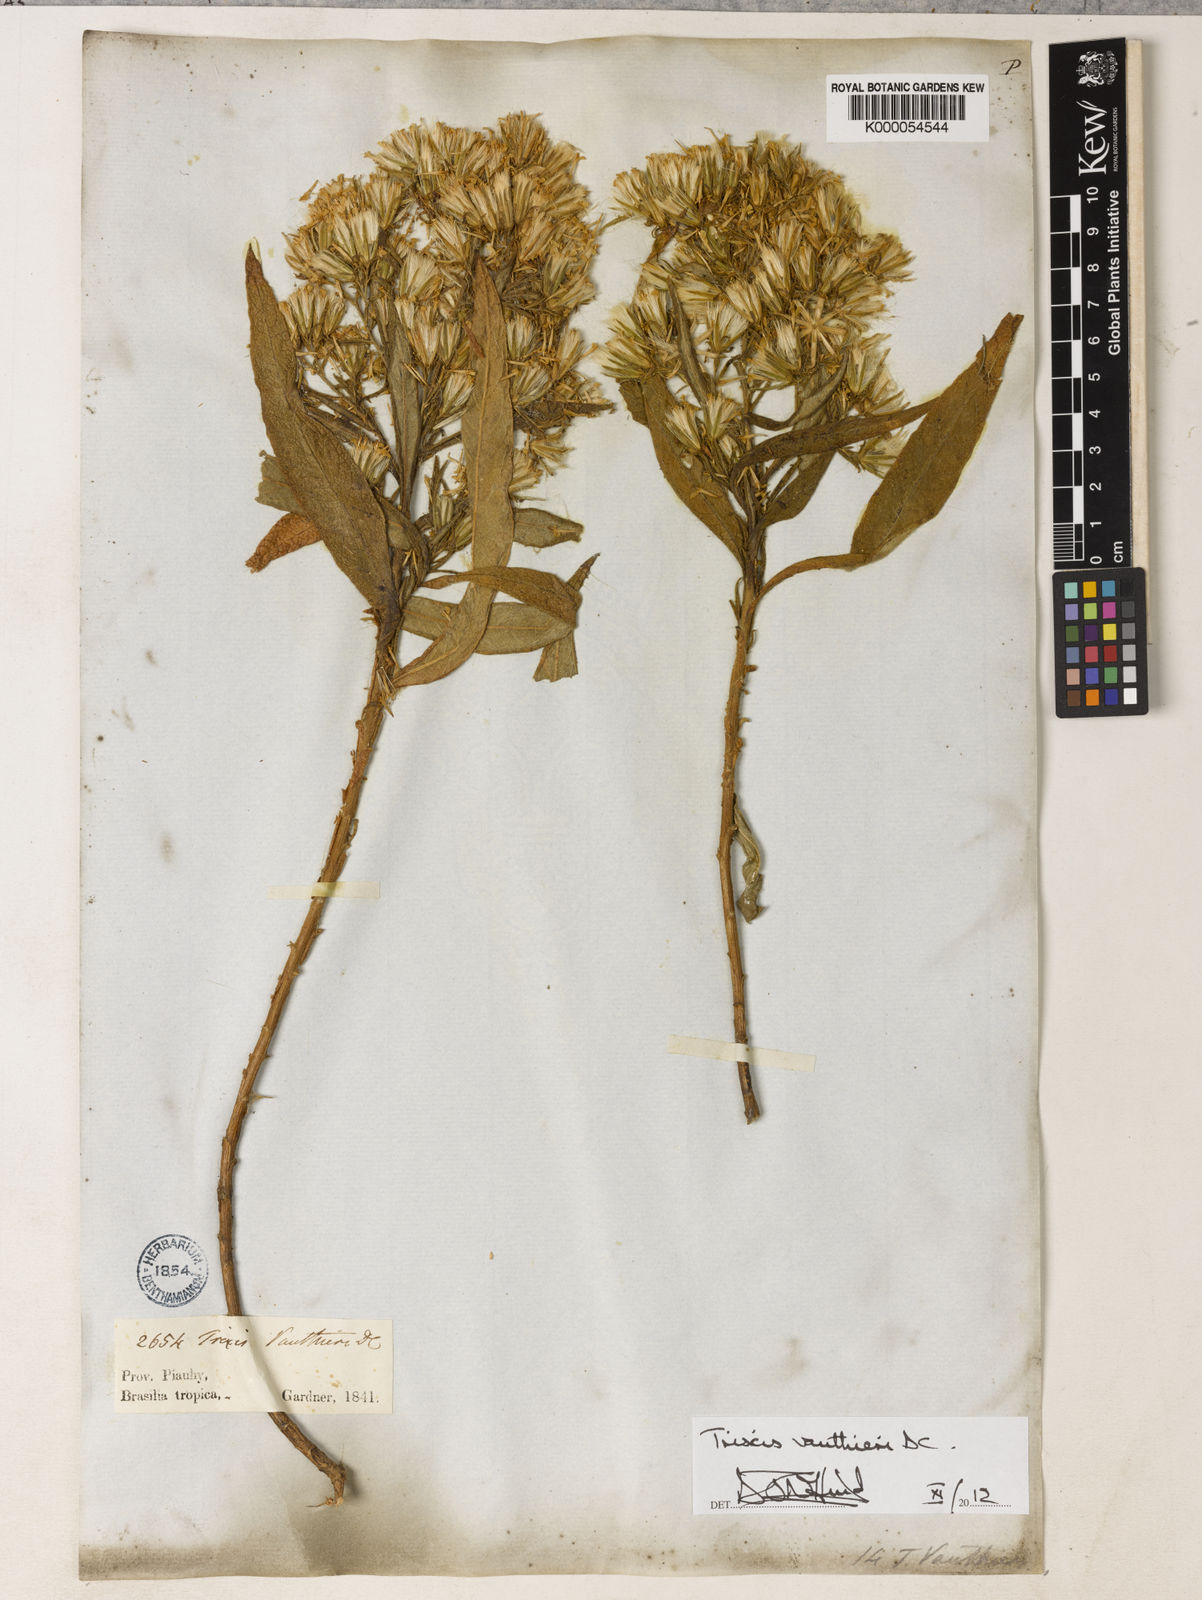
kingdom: Plantae
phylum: Tracheophyta
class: Magnoliopsida
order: Asterales
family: Asteraceae
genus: Trixis
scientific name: Trixis vauthieri
